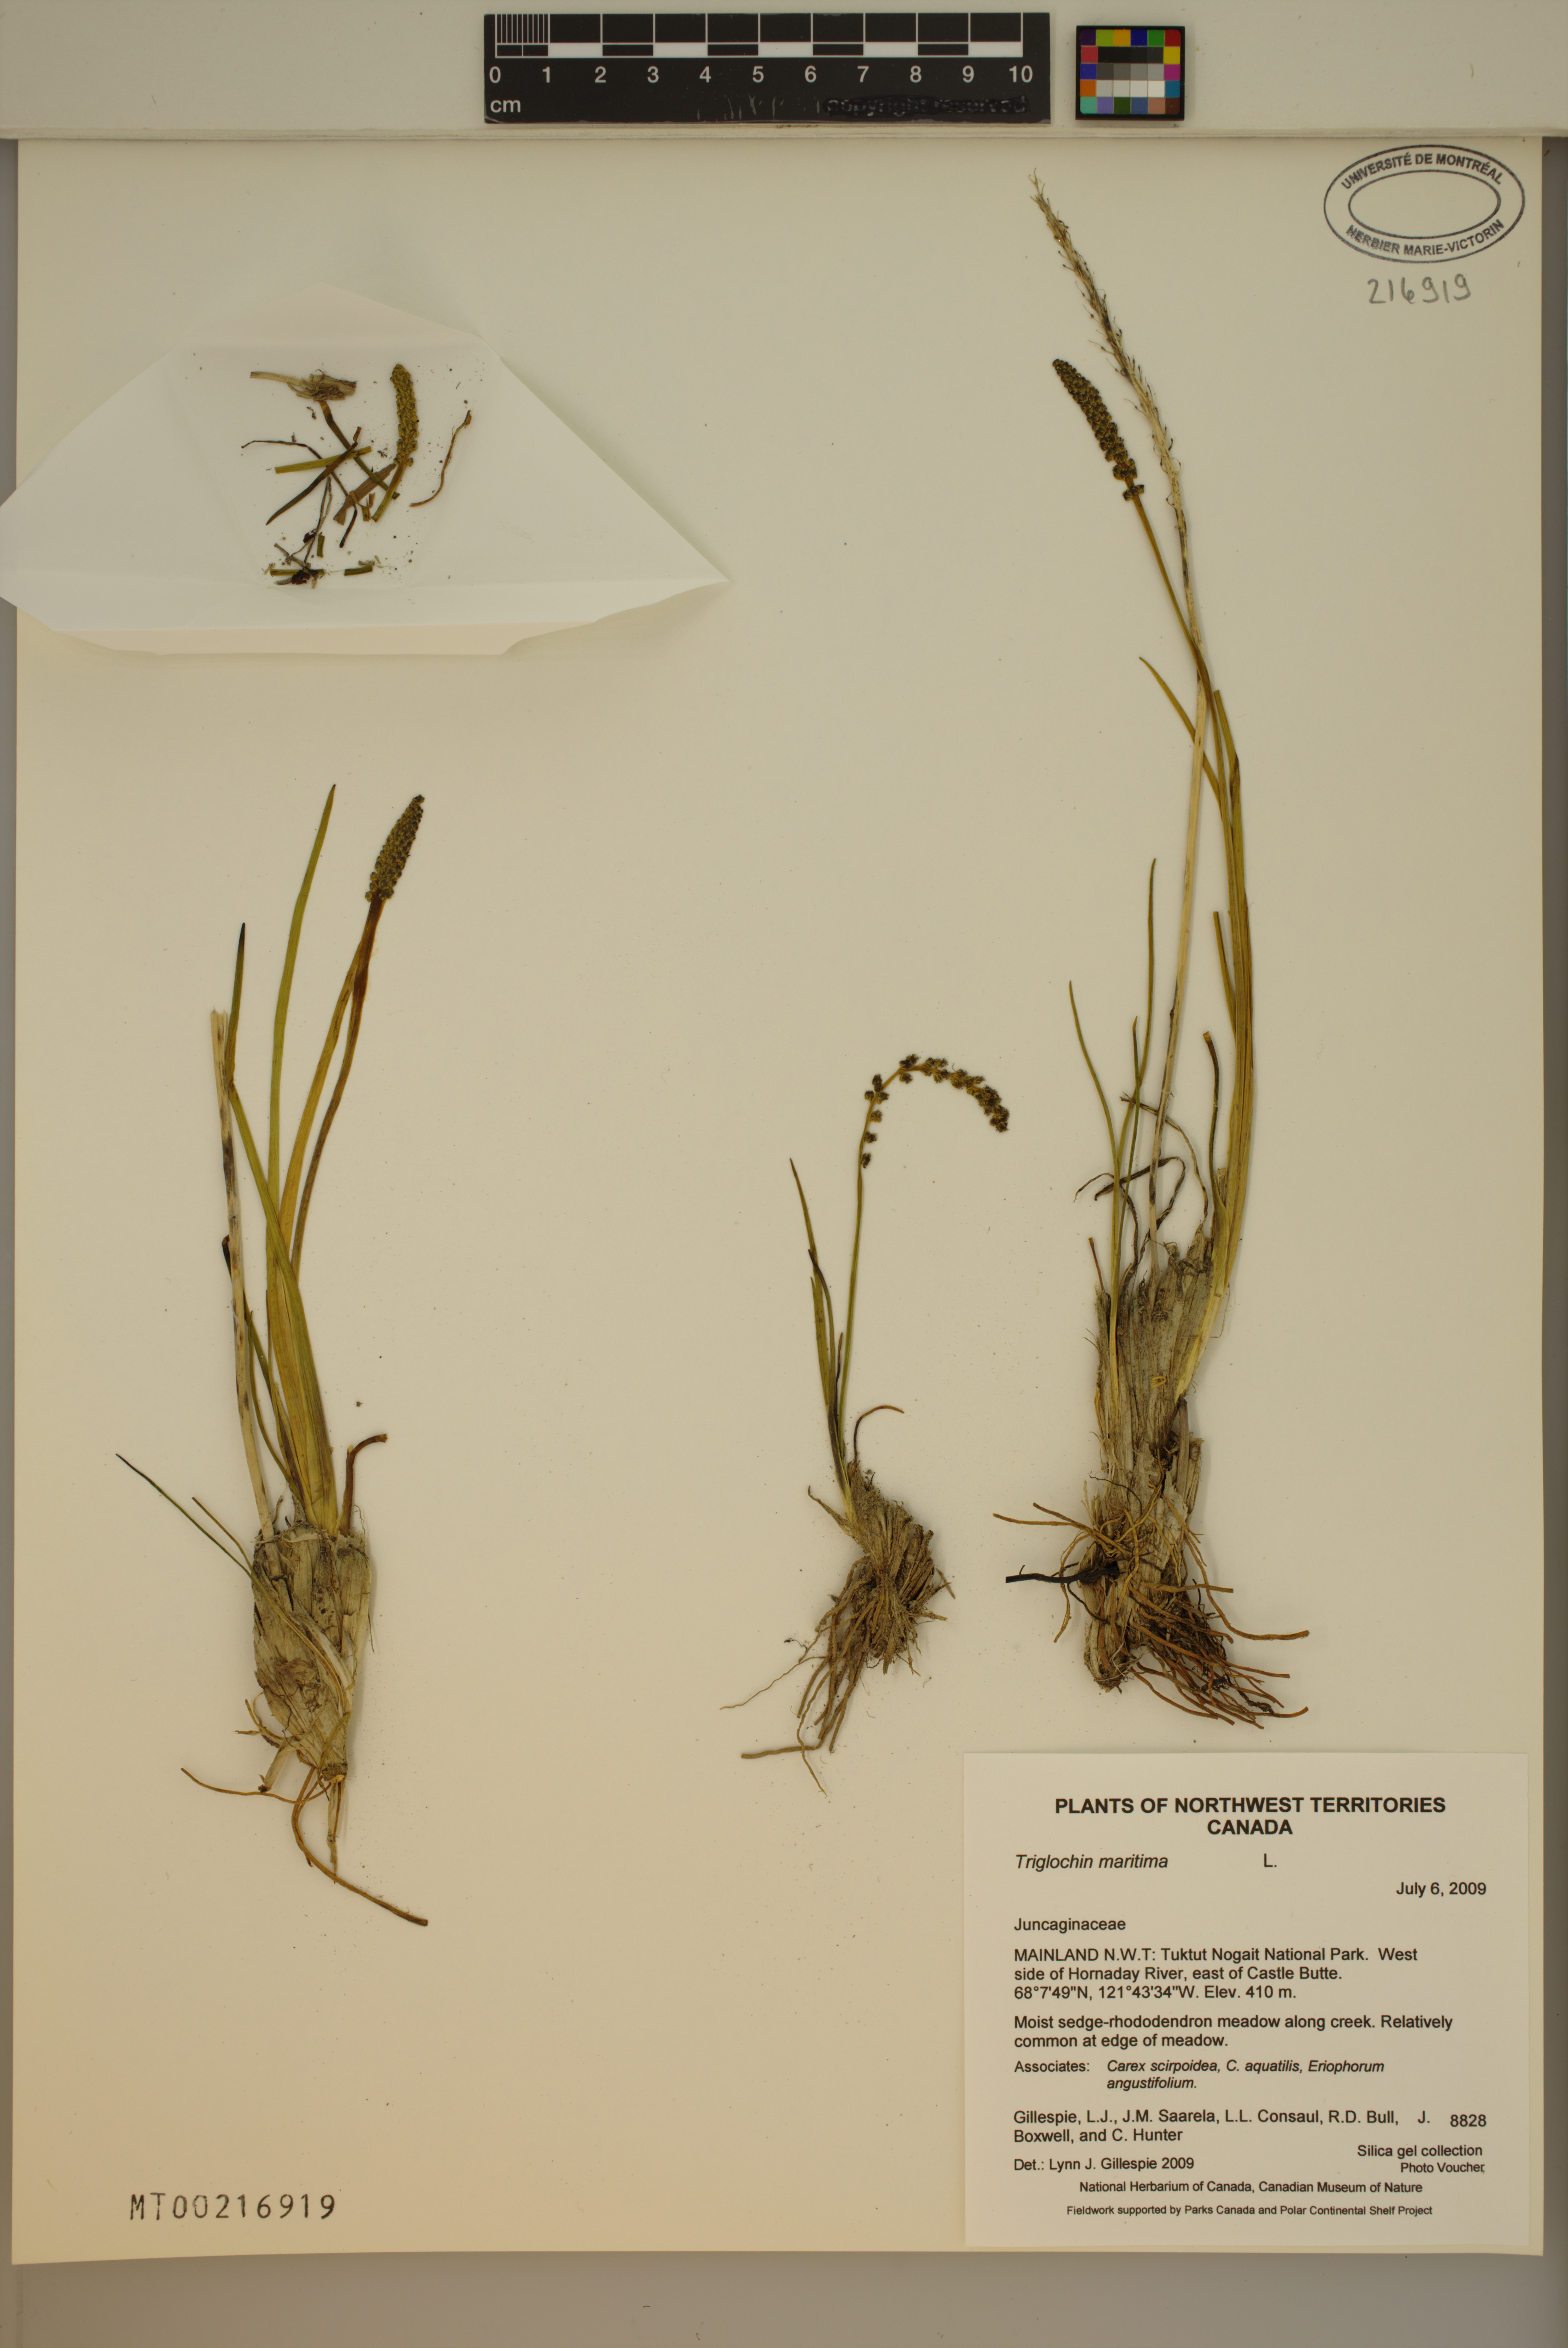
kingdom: Plantae
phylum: Tracheophyta
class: Liliopsida
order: Alismatales
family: Juncaginaceae
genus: Triglochin
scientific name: Triglochin maritima
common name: Sea arrowgrass
